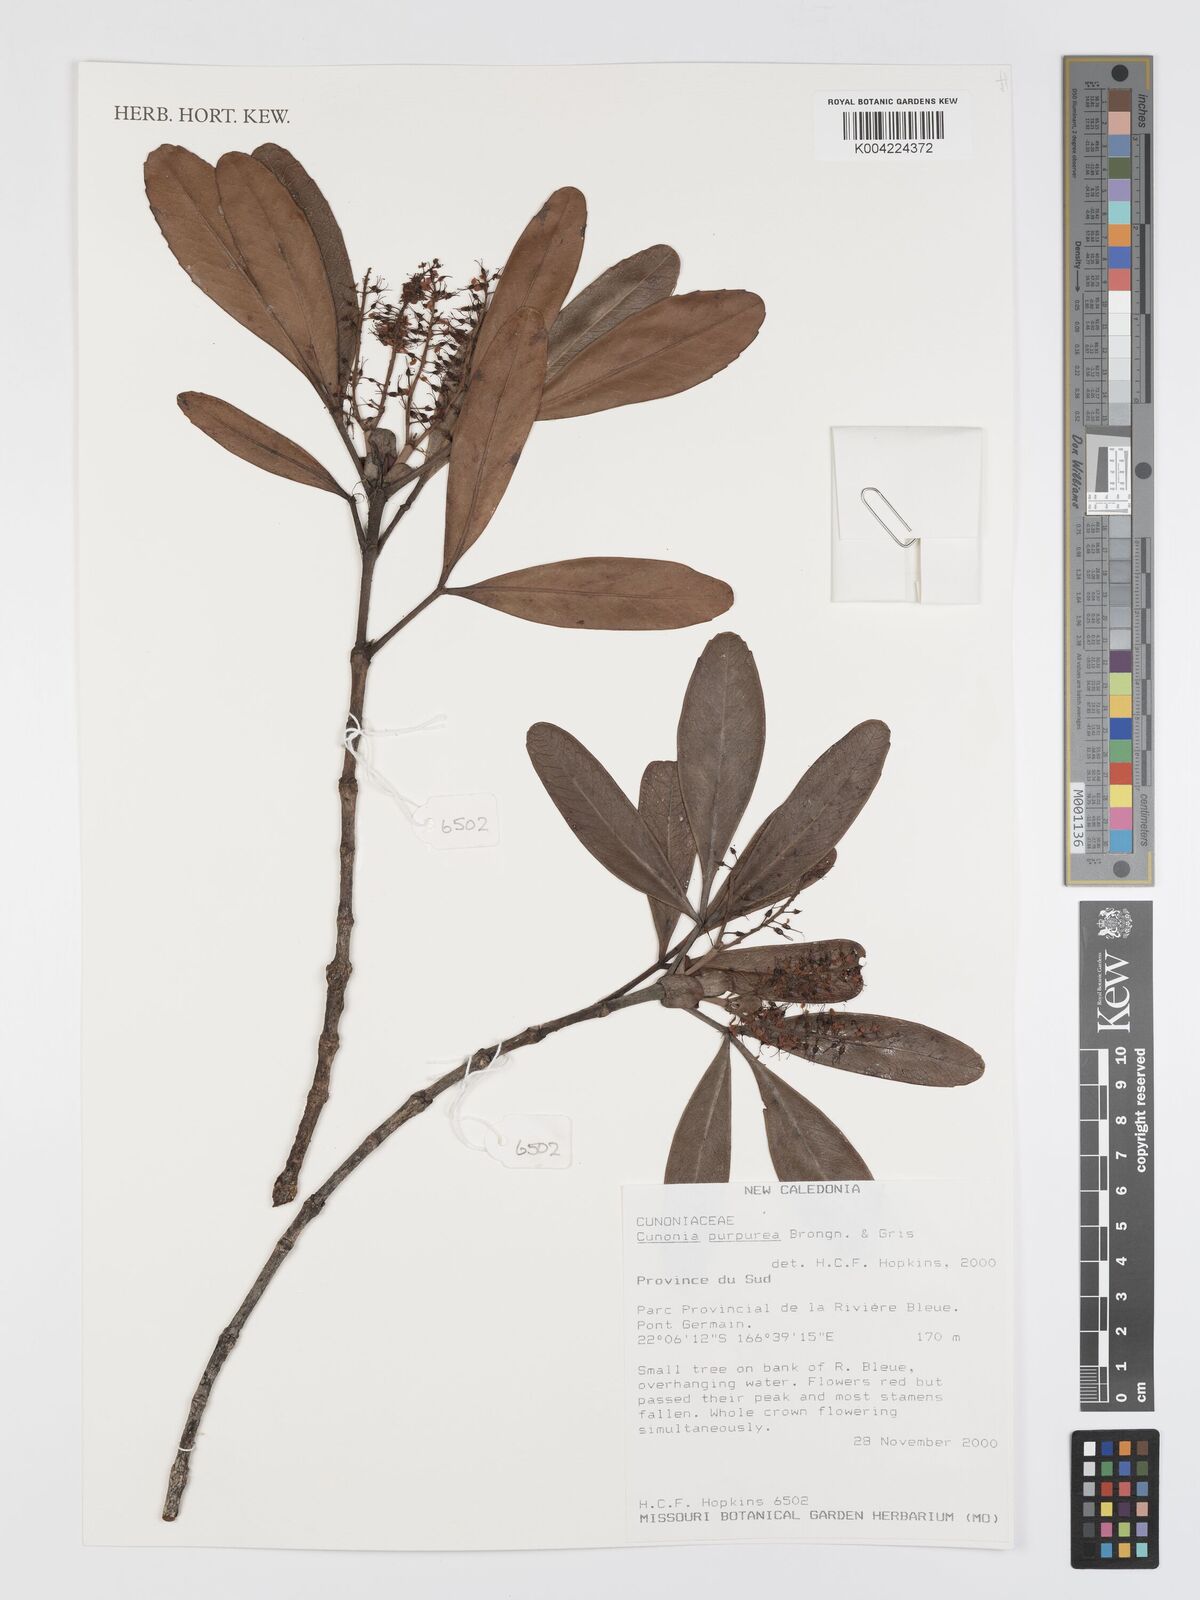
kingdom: Plantae
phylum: Tracheophyta
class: Magnoliopsida
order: Oxalidales
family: Cunoniaceae
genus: Cunonia
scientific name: Cunonia purpurea
